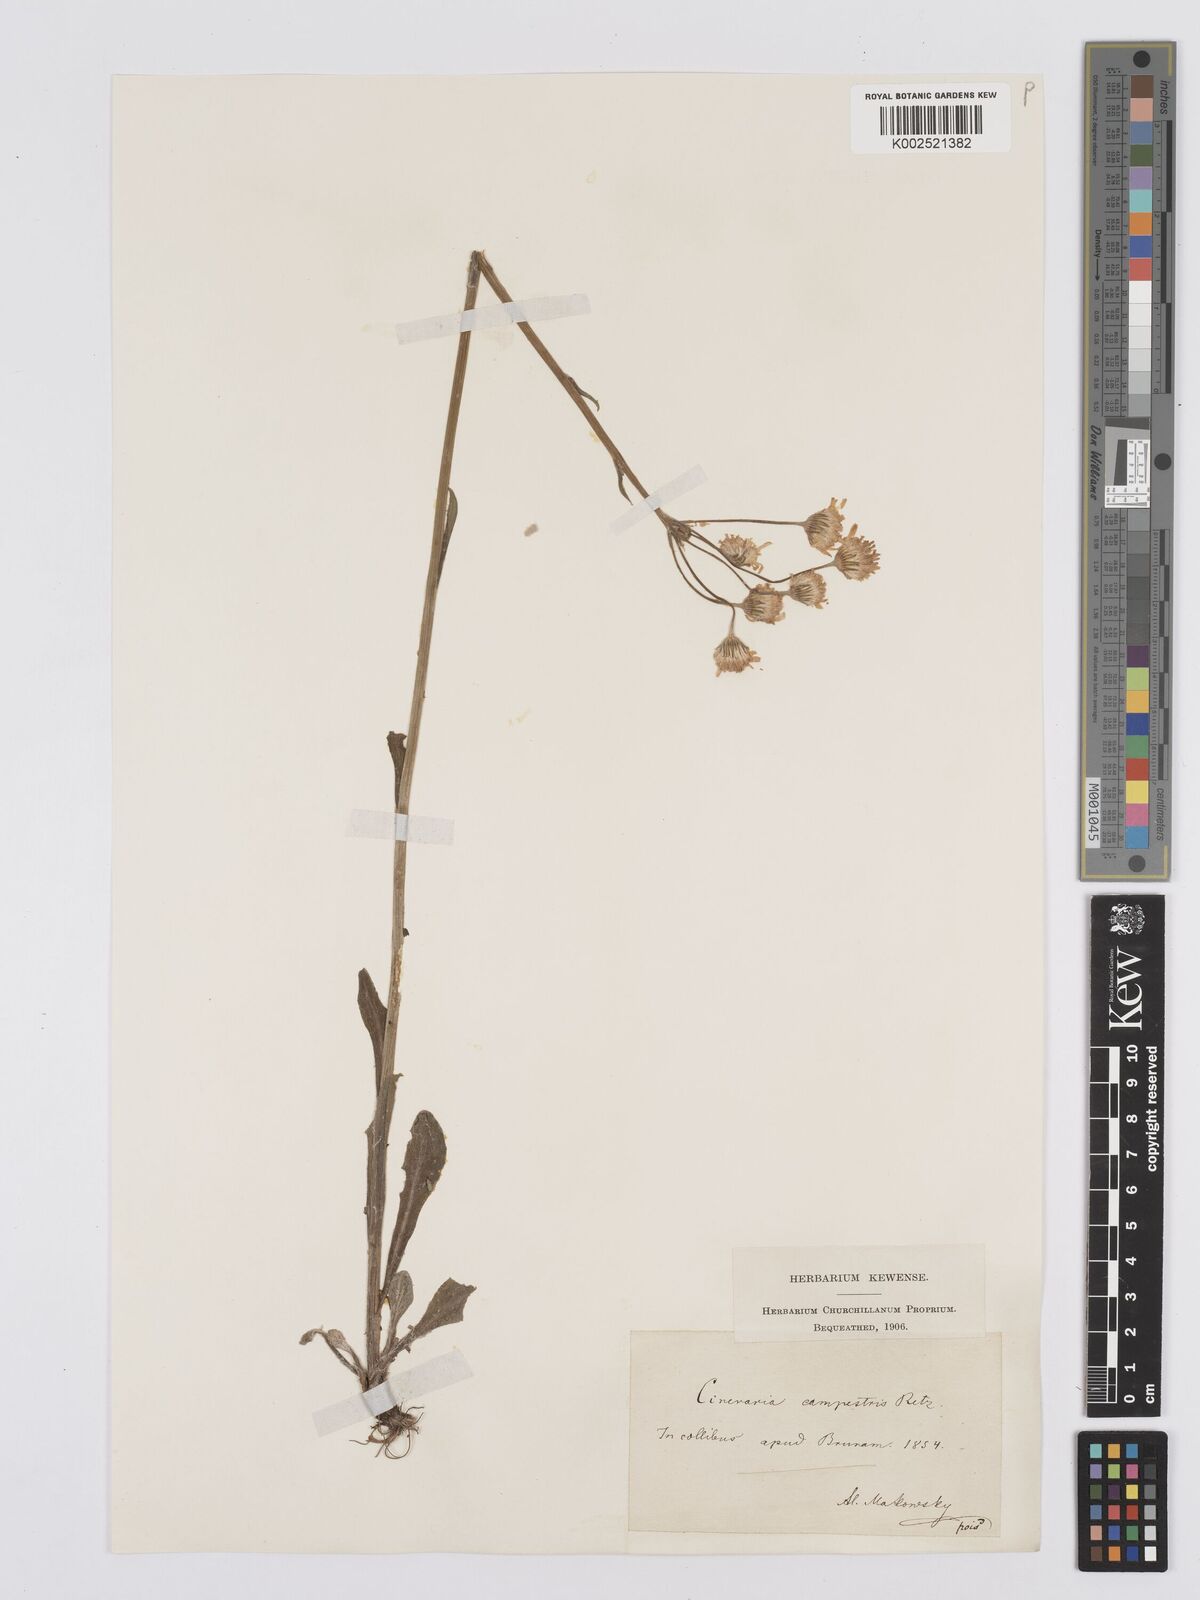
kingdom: Plantae
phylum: Tracheophyta
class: Magnoliopsida
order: Asterales
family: Asteraceae
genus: Tephroseris
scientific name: Tephroseris integrifolia
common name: Field fleawort
